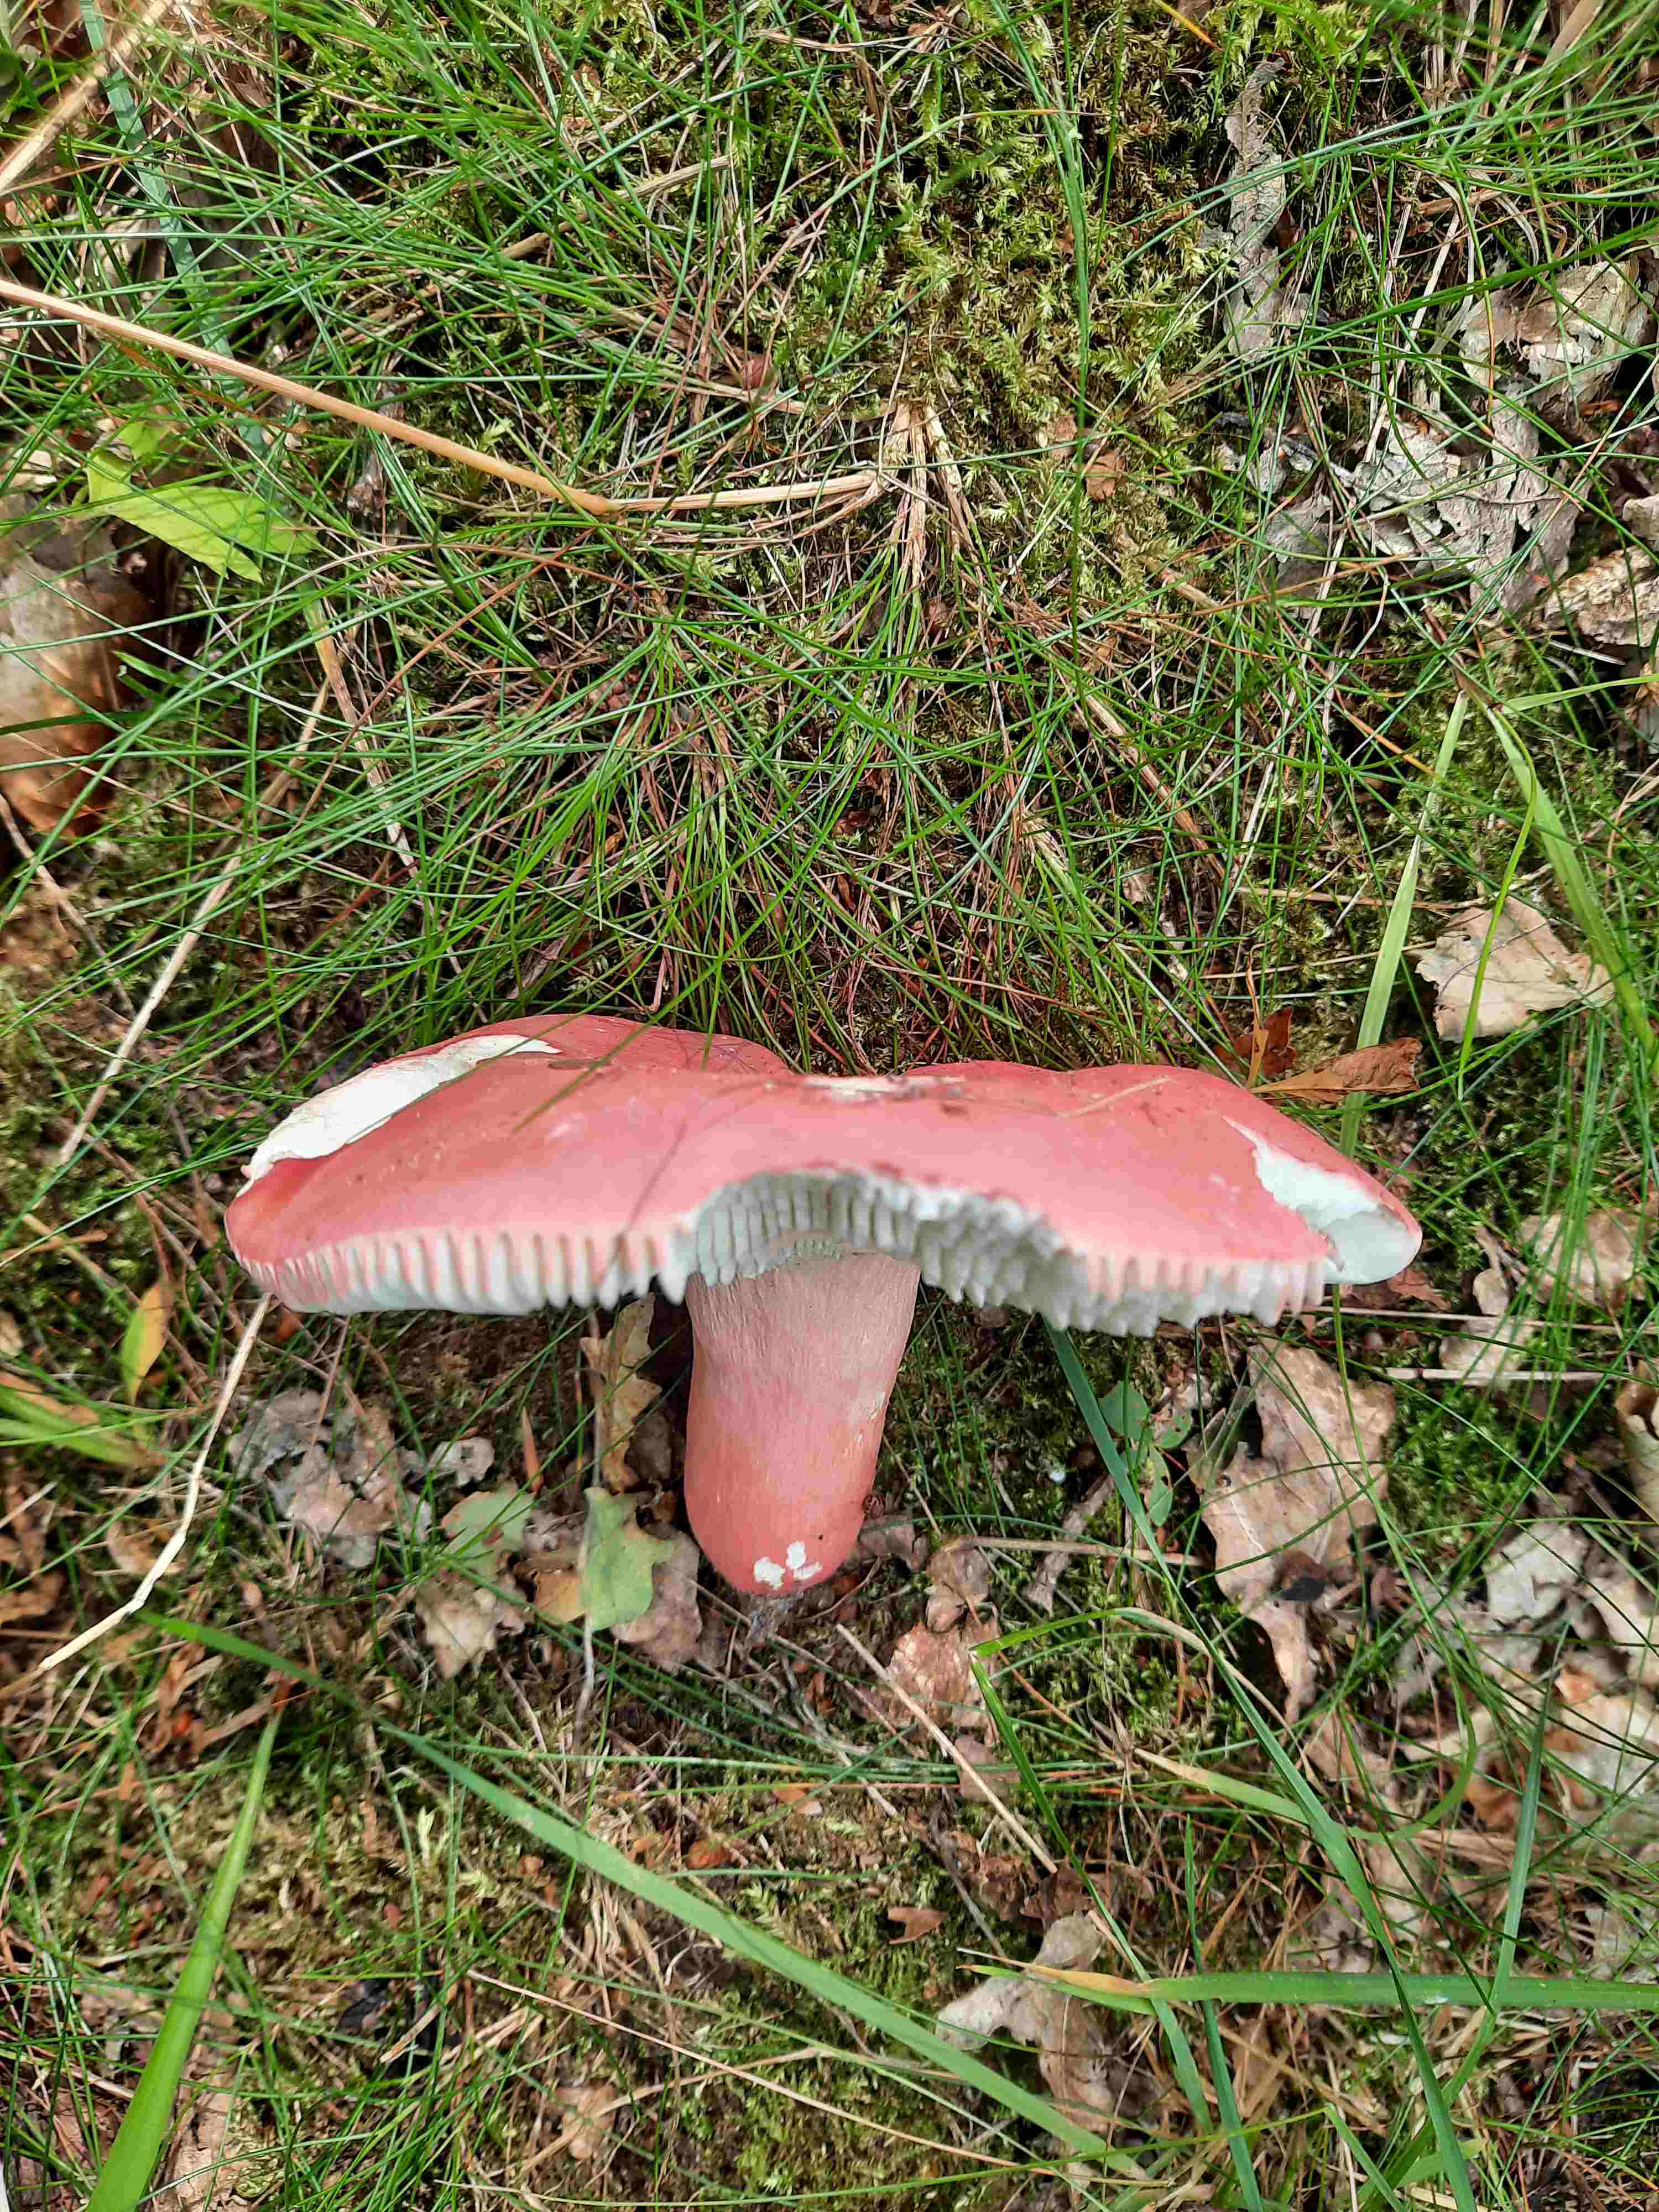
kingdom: Fungi
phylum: Basidiomycota
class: Agaricomycetes
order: Russulales
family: Russulaceae
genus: Russula
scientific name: Russula rosea
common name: fastkødet skørhat
